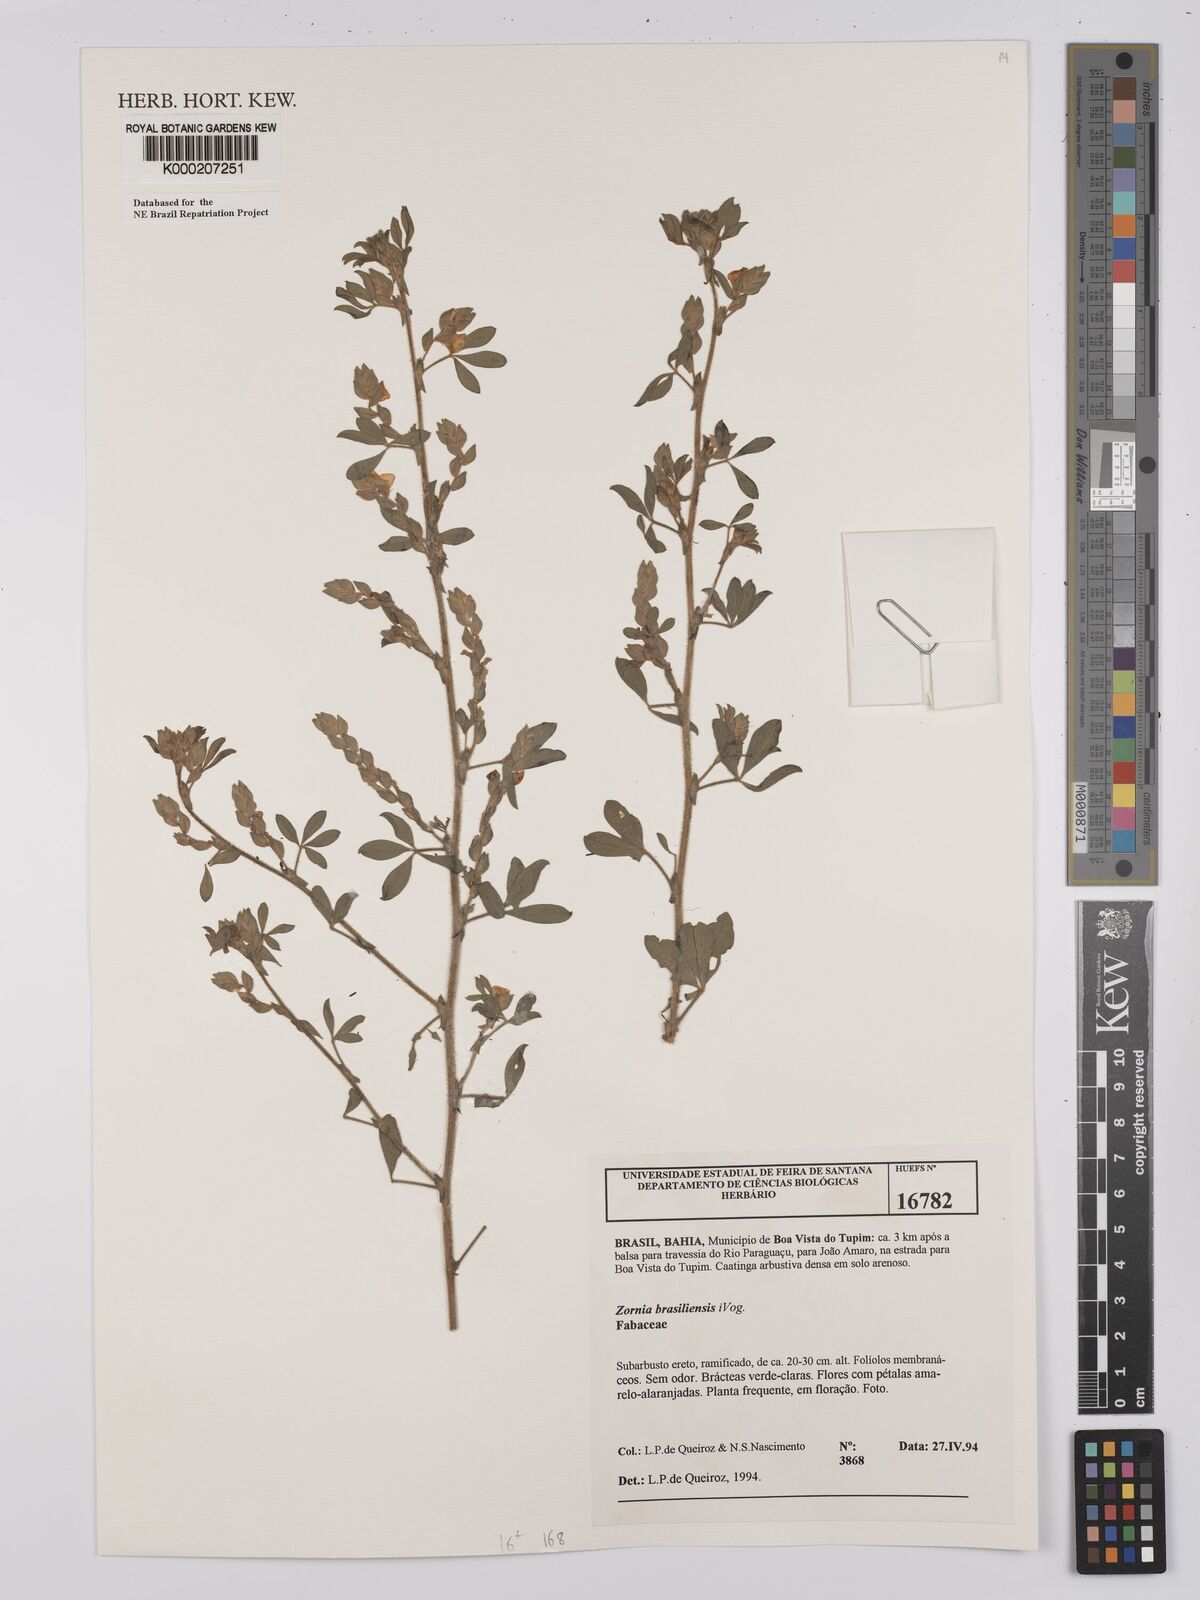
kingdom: Plantae
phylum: Tracheophyta
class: Magnoliopsida
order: Fabales
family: Fabaceae
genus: Zornia
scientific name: Zornia brasiliensis
